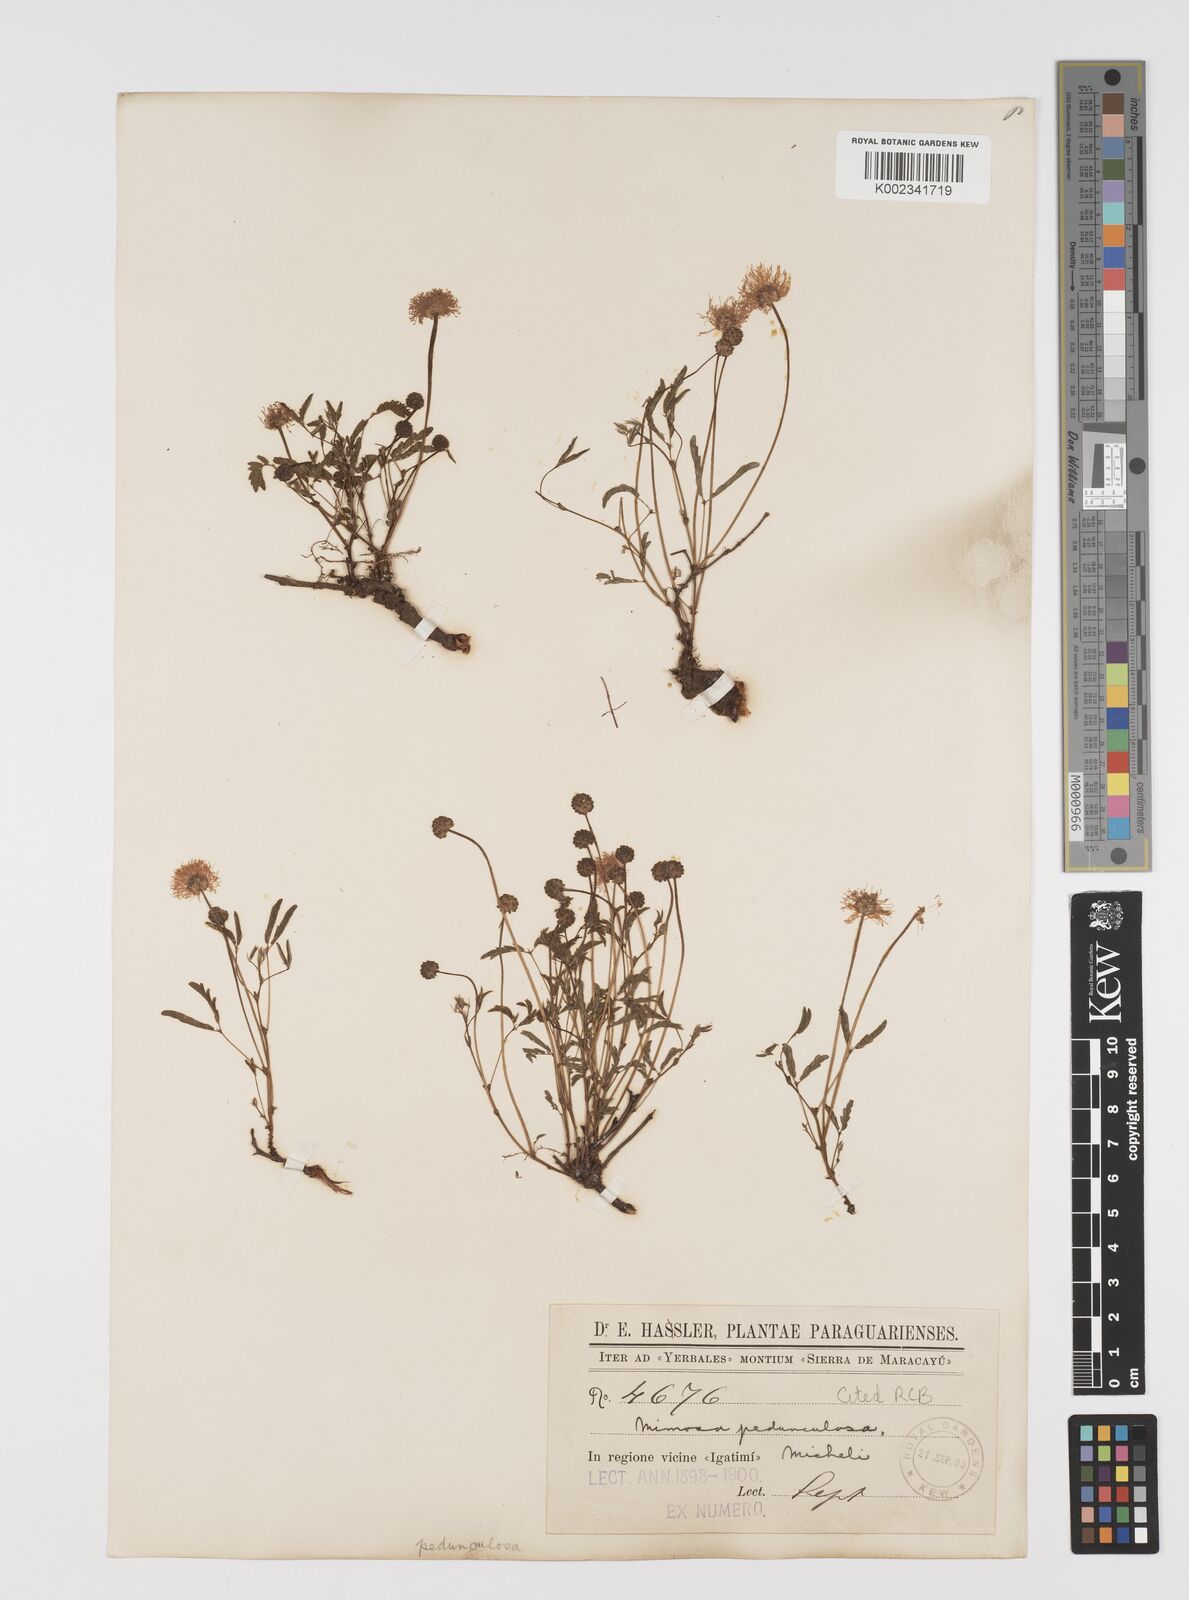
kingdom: Plantae
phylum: Tracheophyta
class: Magnoliopsida
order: Fabales
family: Fabaceae
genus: Mimosa
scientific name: Mimosa pedunculosa
